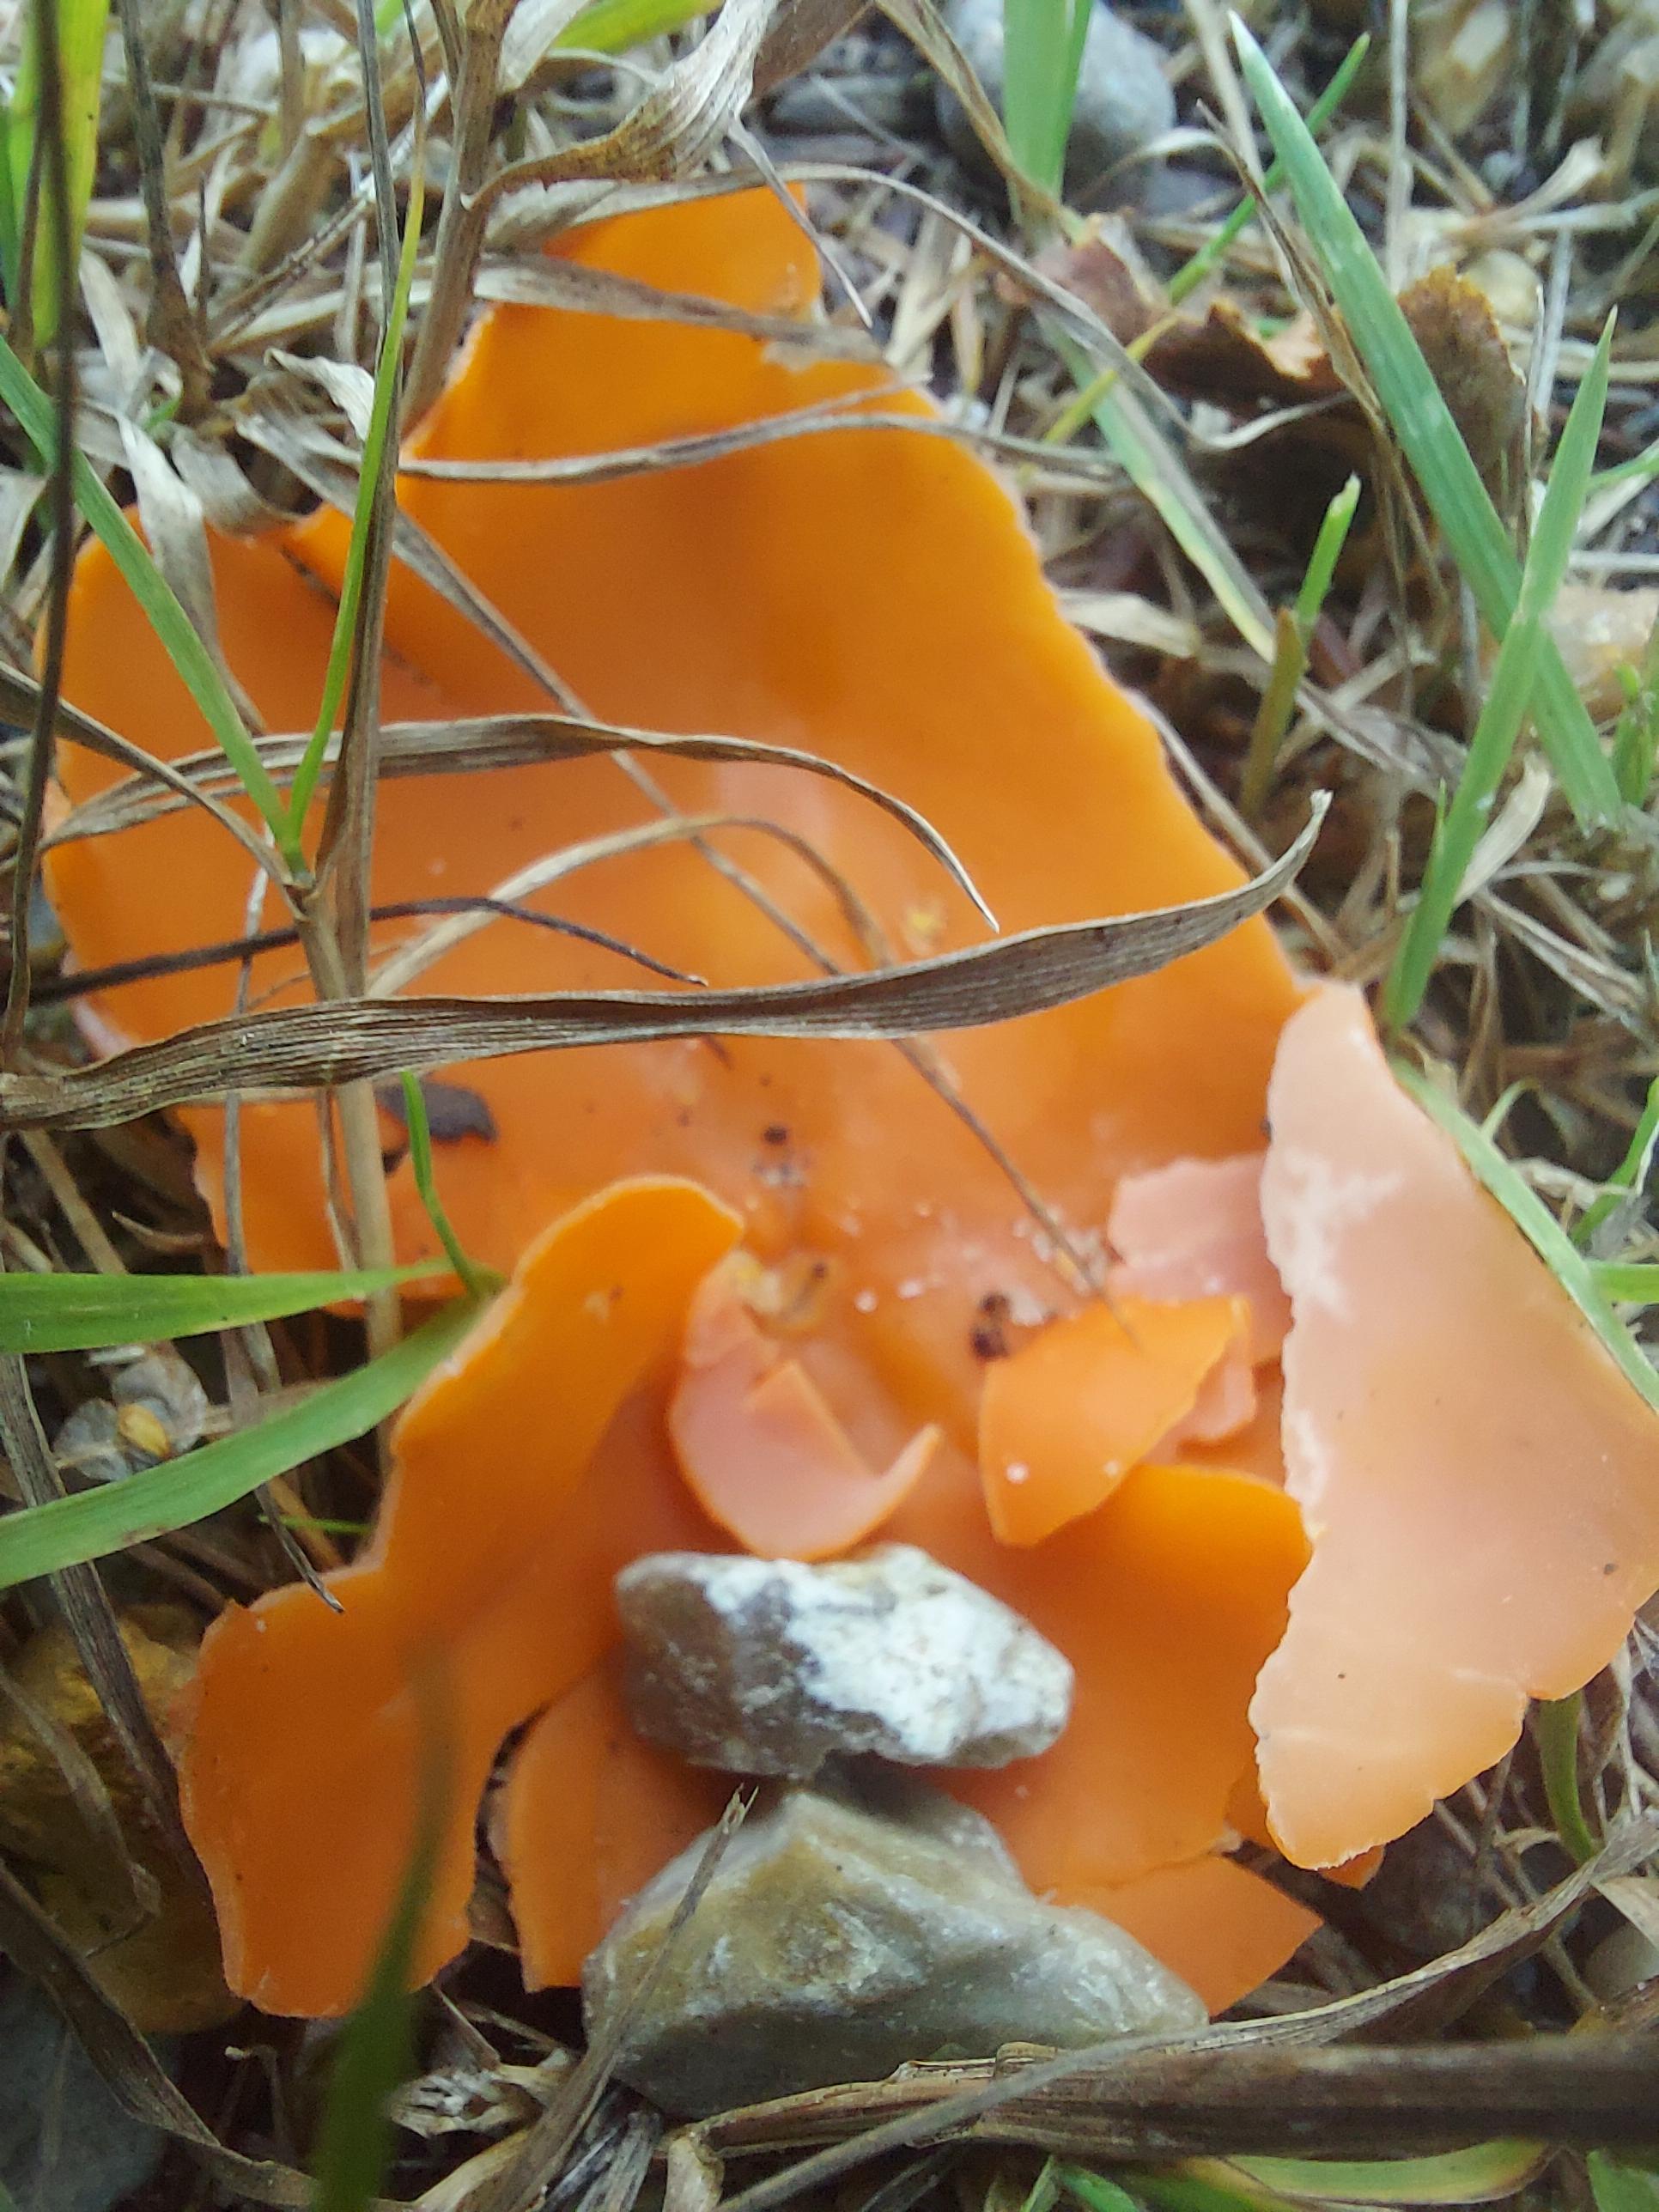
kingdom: Fungi
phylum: Ascomycota
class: Pezizomycetes
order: Pezizales
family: Pyronemataceae
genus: Aleuria
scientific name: Aleuria aurantia
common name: almindelig orangebæger
